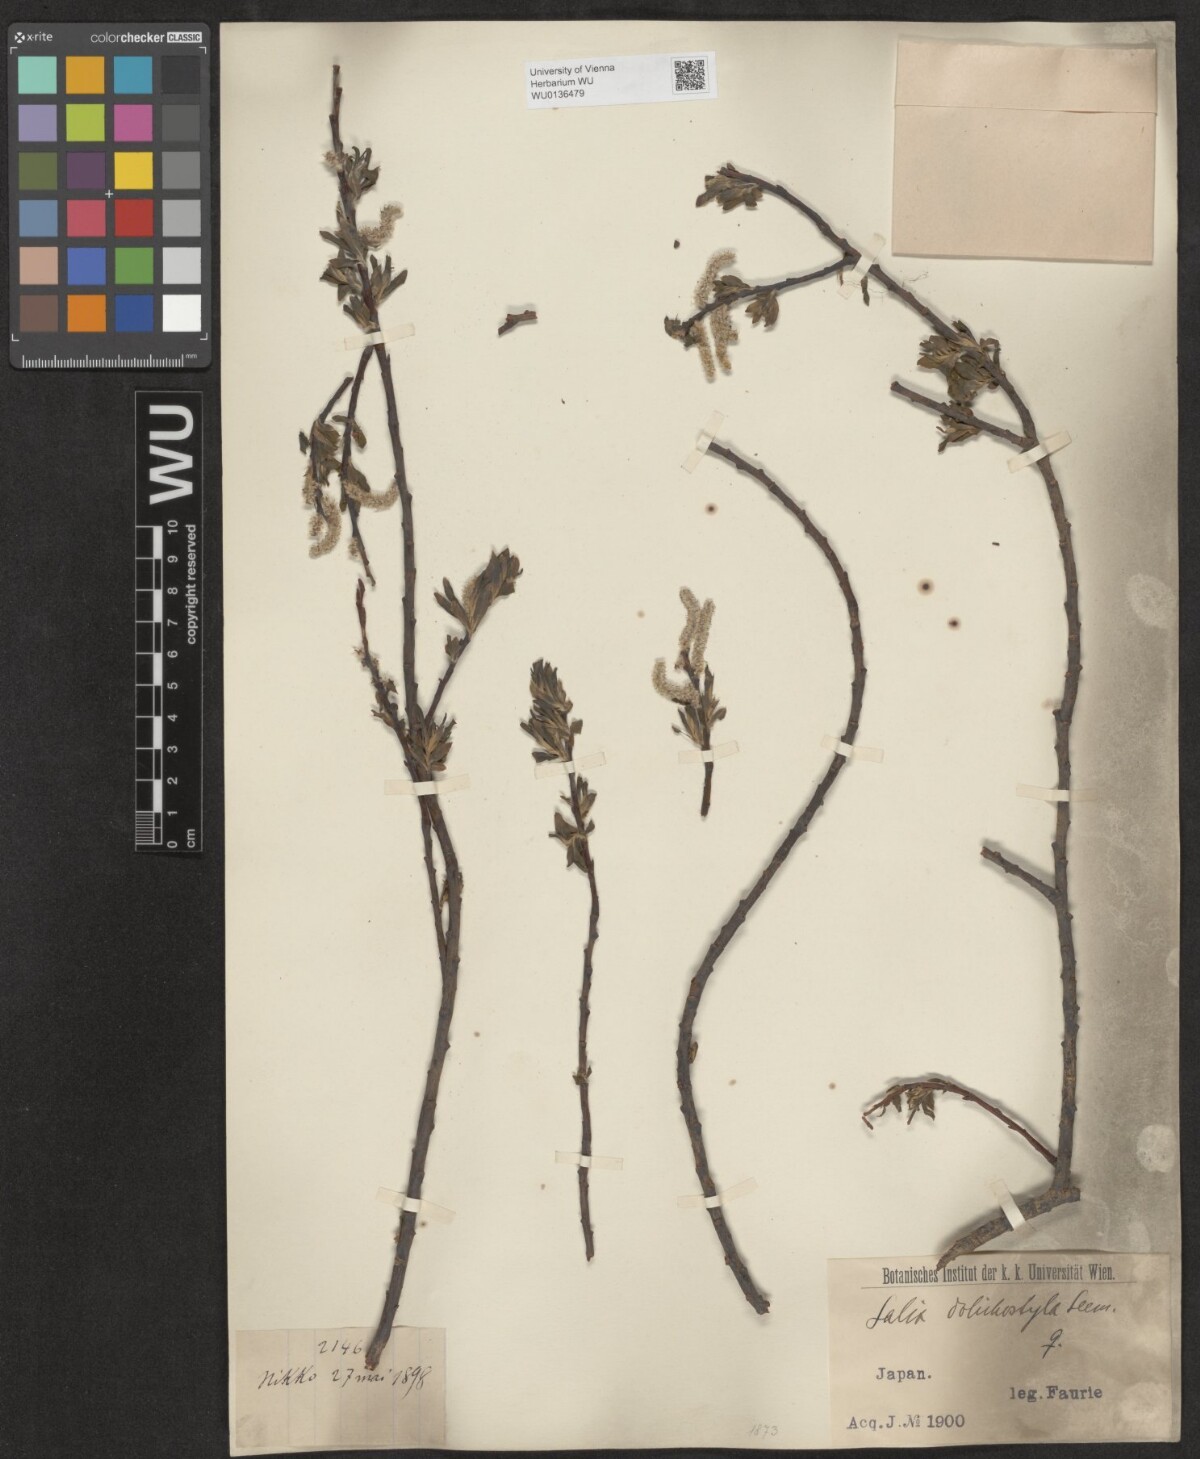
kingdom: Plantae
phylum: Tracheophyta
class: Magnoliopsida
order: Malpighiales
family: Salicaceae
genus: Salix
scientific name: Salix pierotii
